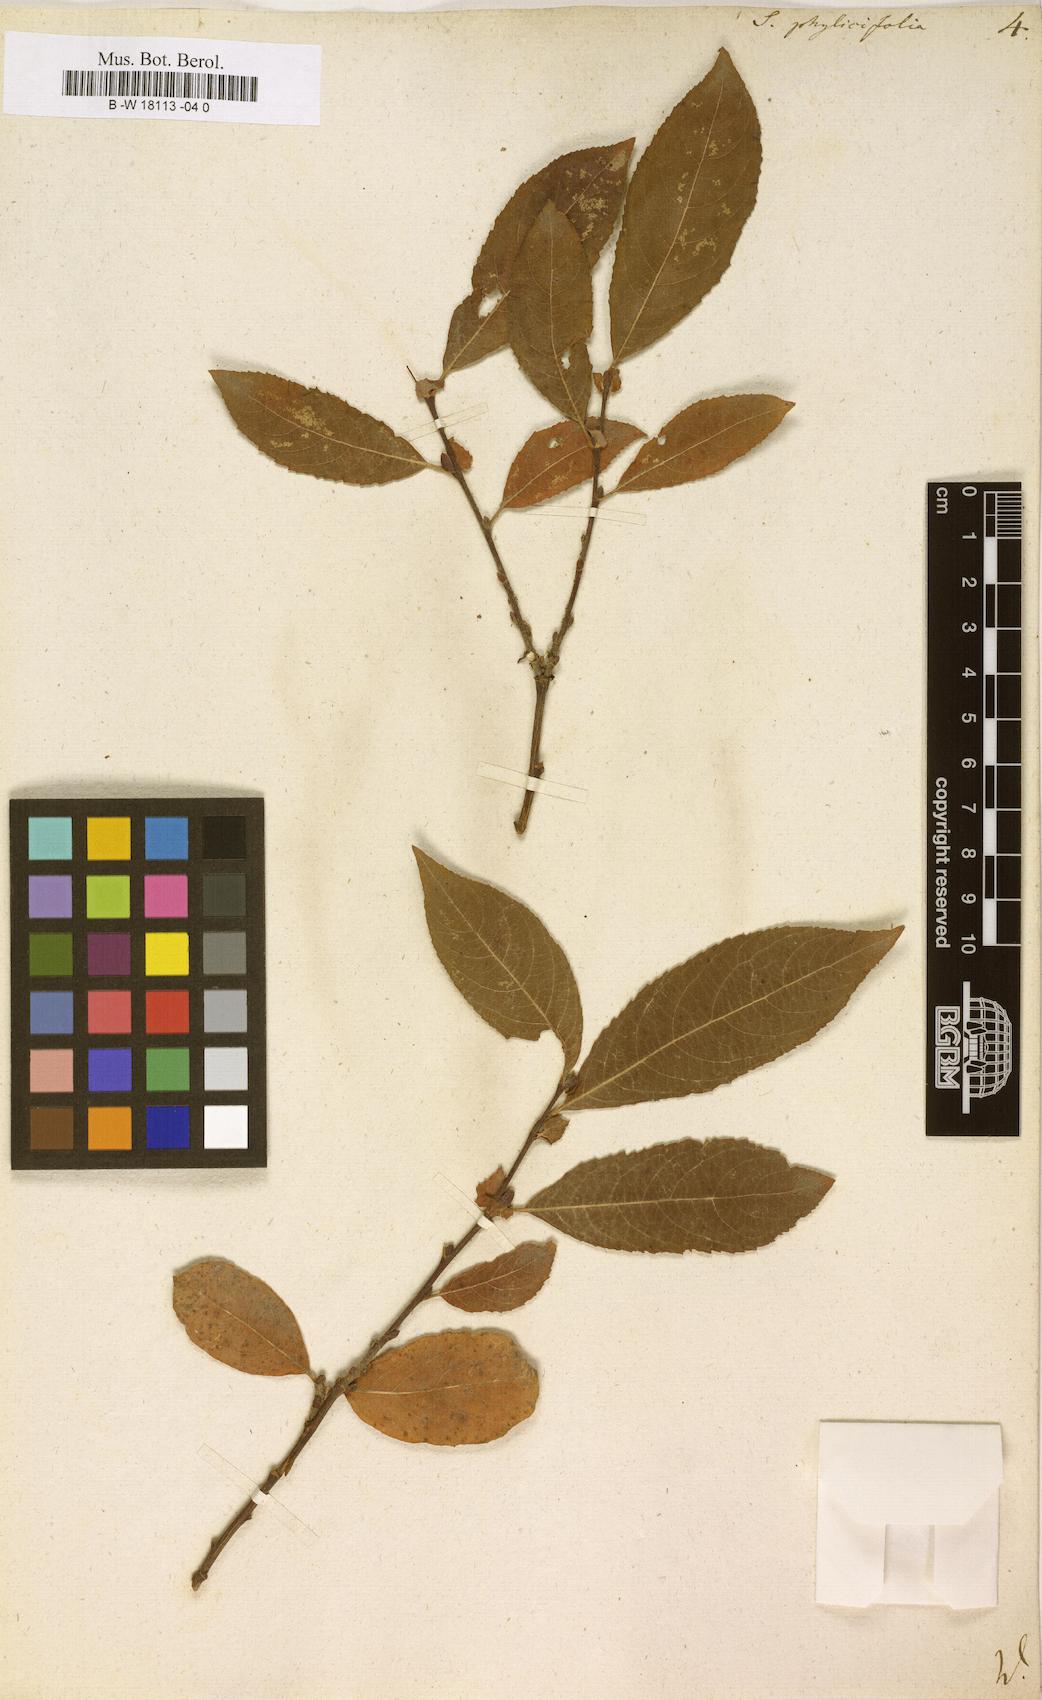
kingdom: Plantae
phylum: Tracheophyta
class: Magnoliopsida
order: Malpighiales
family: Salicaceae
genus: Salix
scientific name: Salix phylicifolia
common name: Tea-leaved willow
